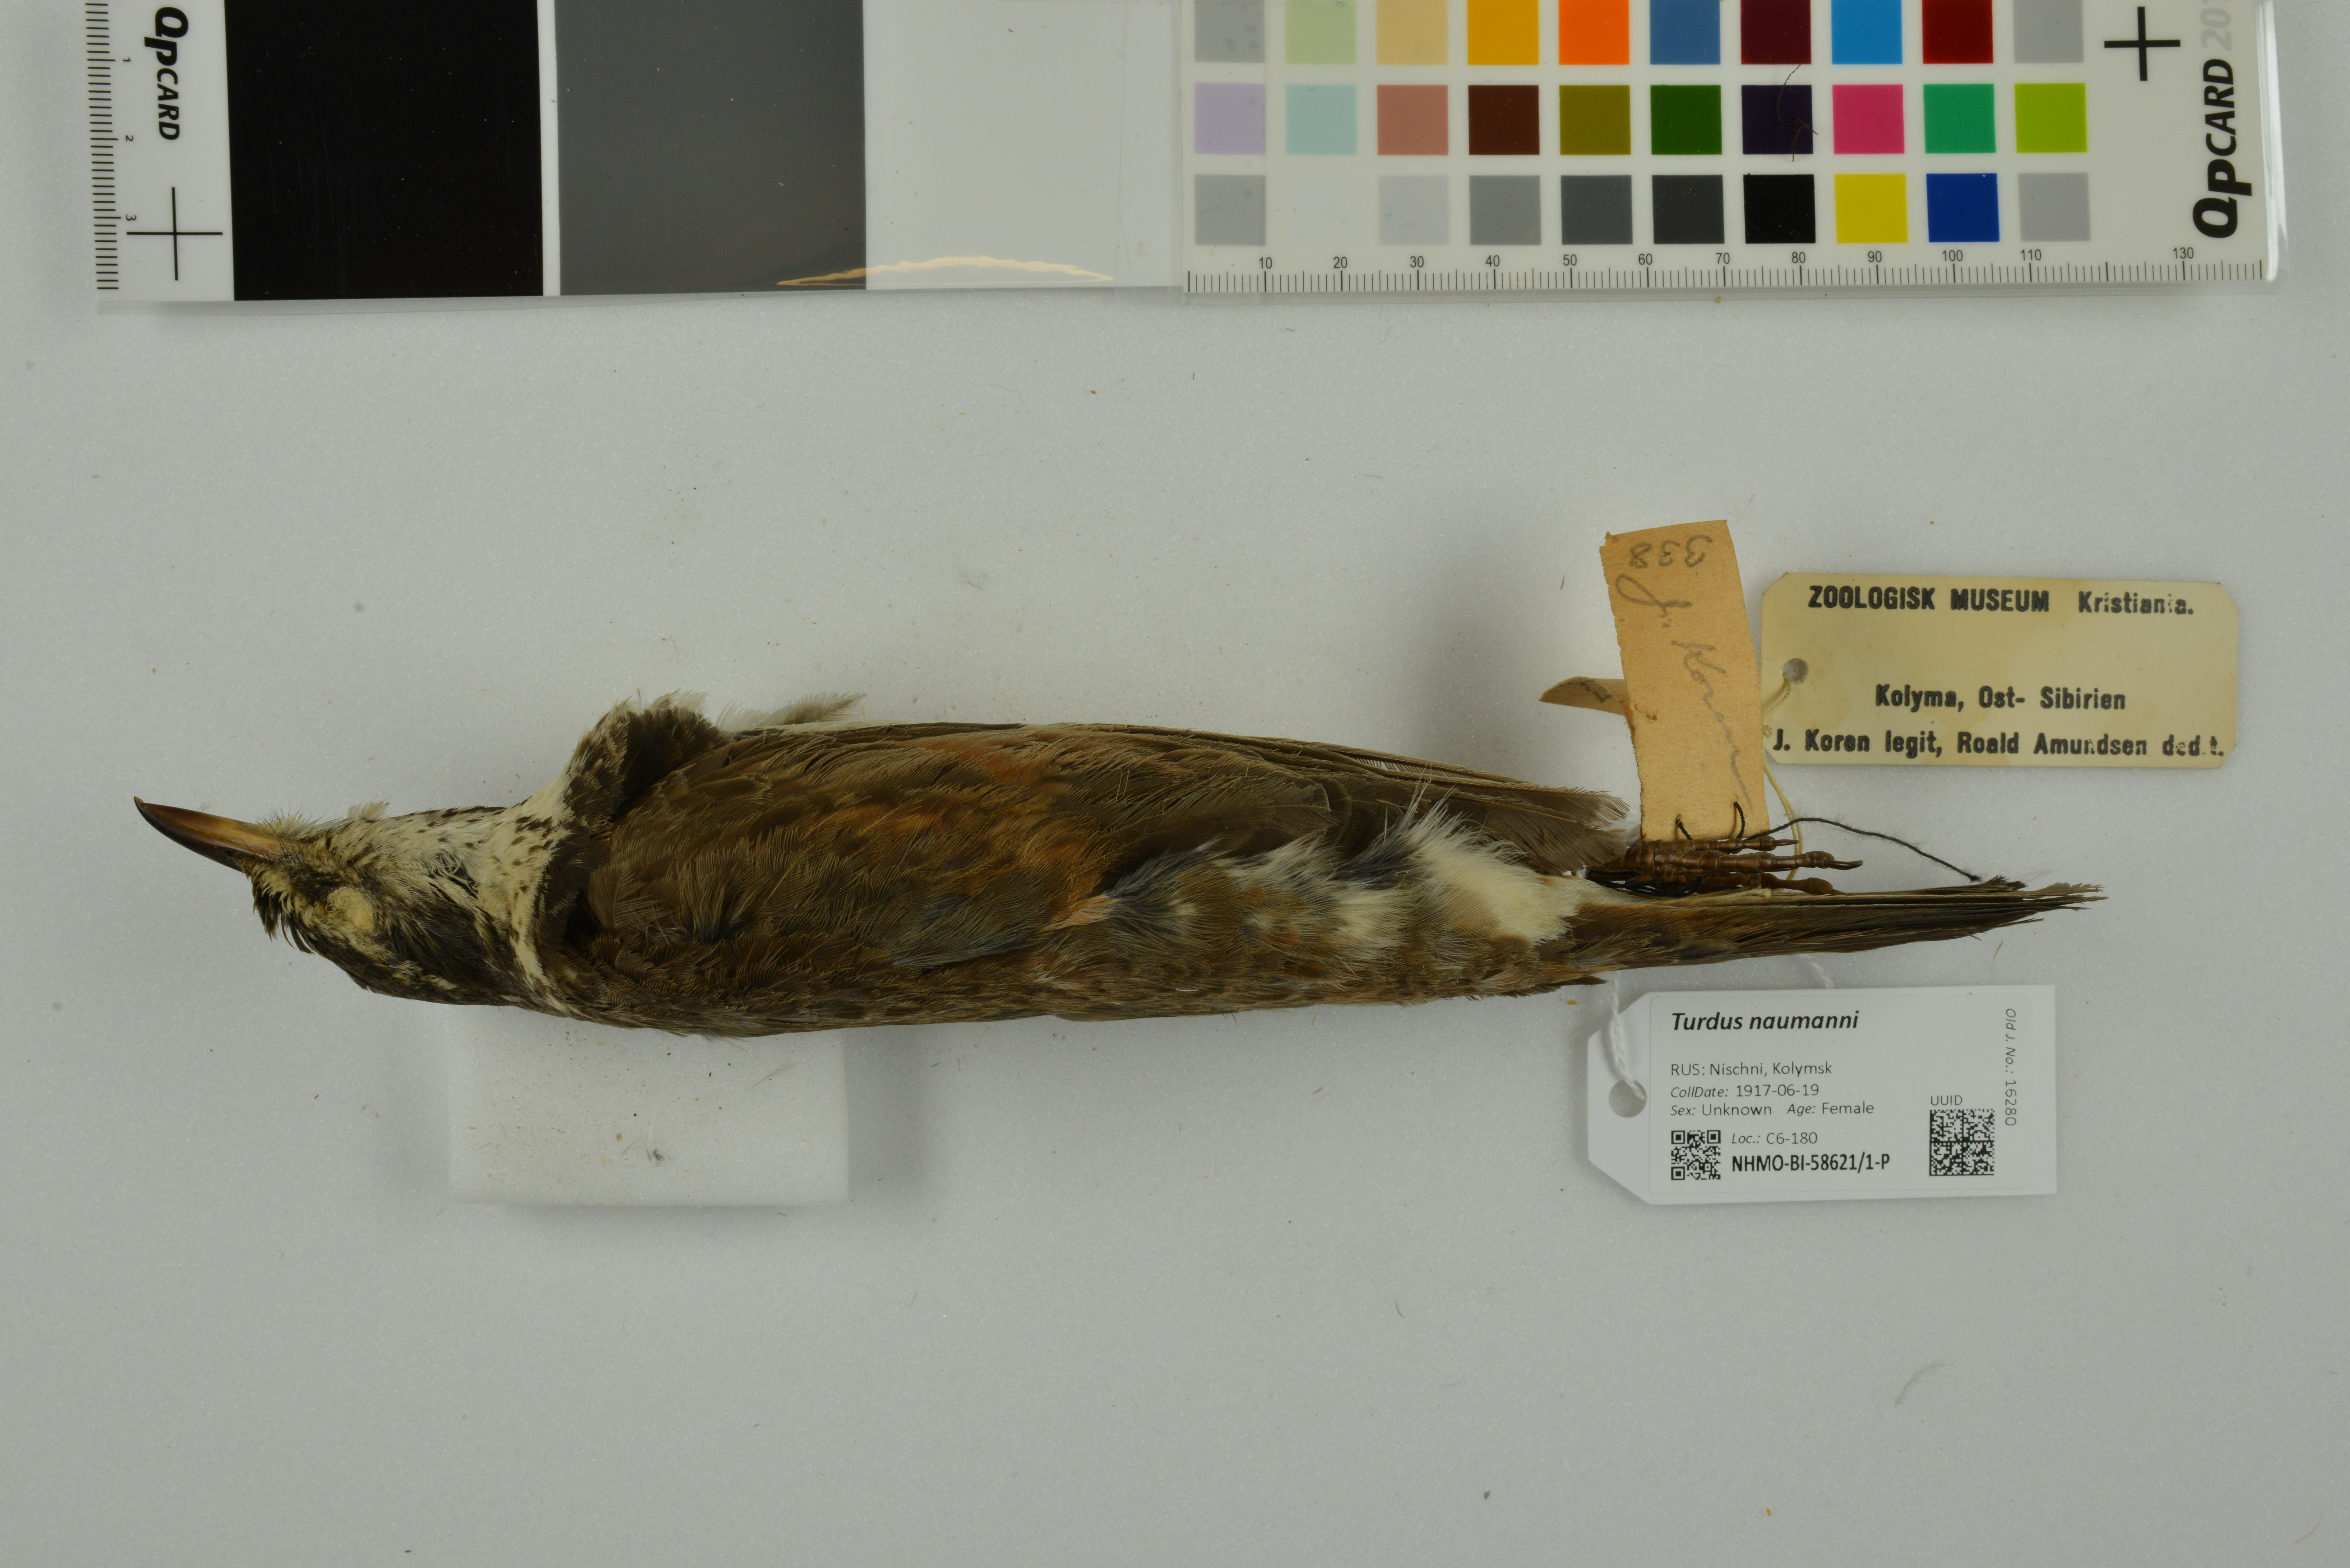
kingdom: Animalia
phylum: Chordata
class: Aves
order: Passeriformes
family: Turdidae
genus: Turdus
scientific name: Turdus naumanni
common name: Naumann's thrush
